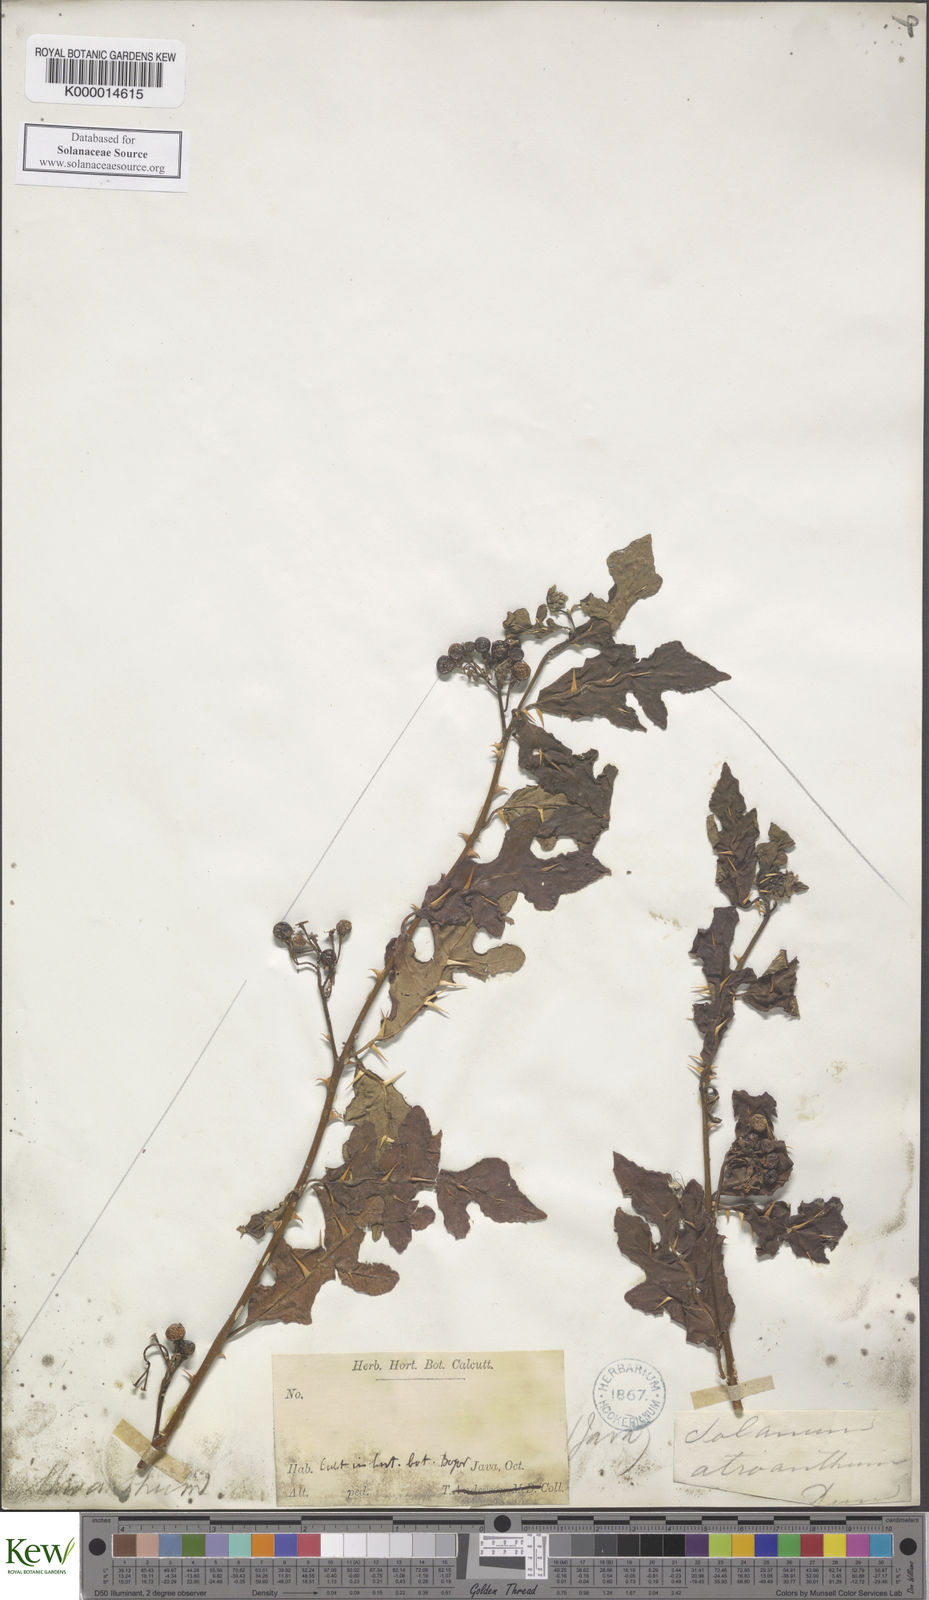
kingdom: Plantae
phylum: Tracheophyta
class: Magnoliopsida
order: Solanales
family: Solanaceae
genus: Solanum
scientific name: Solanum graciliflorum
